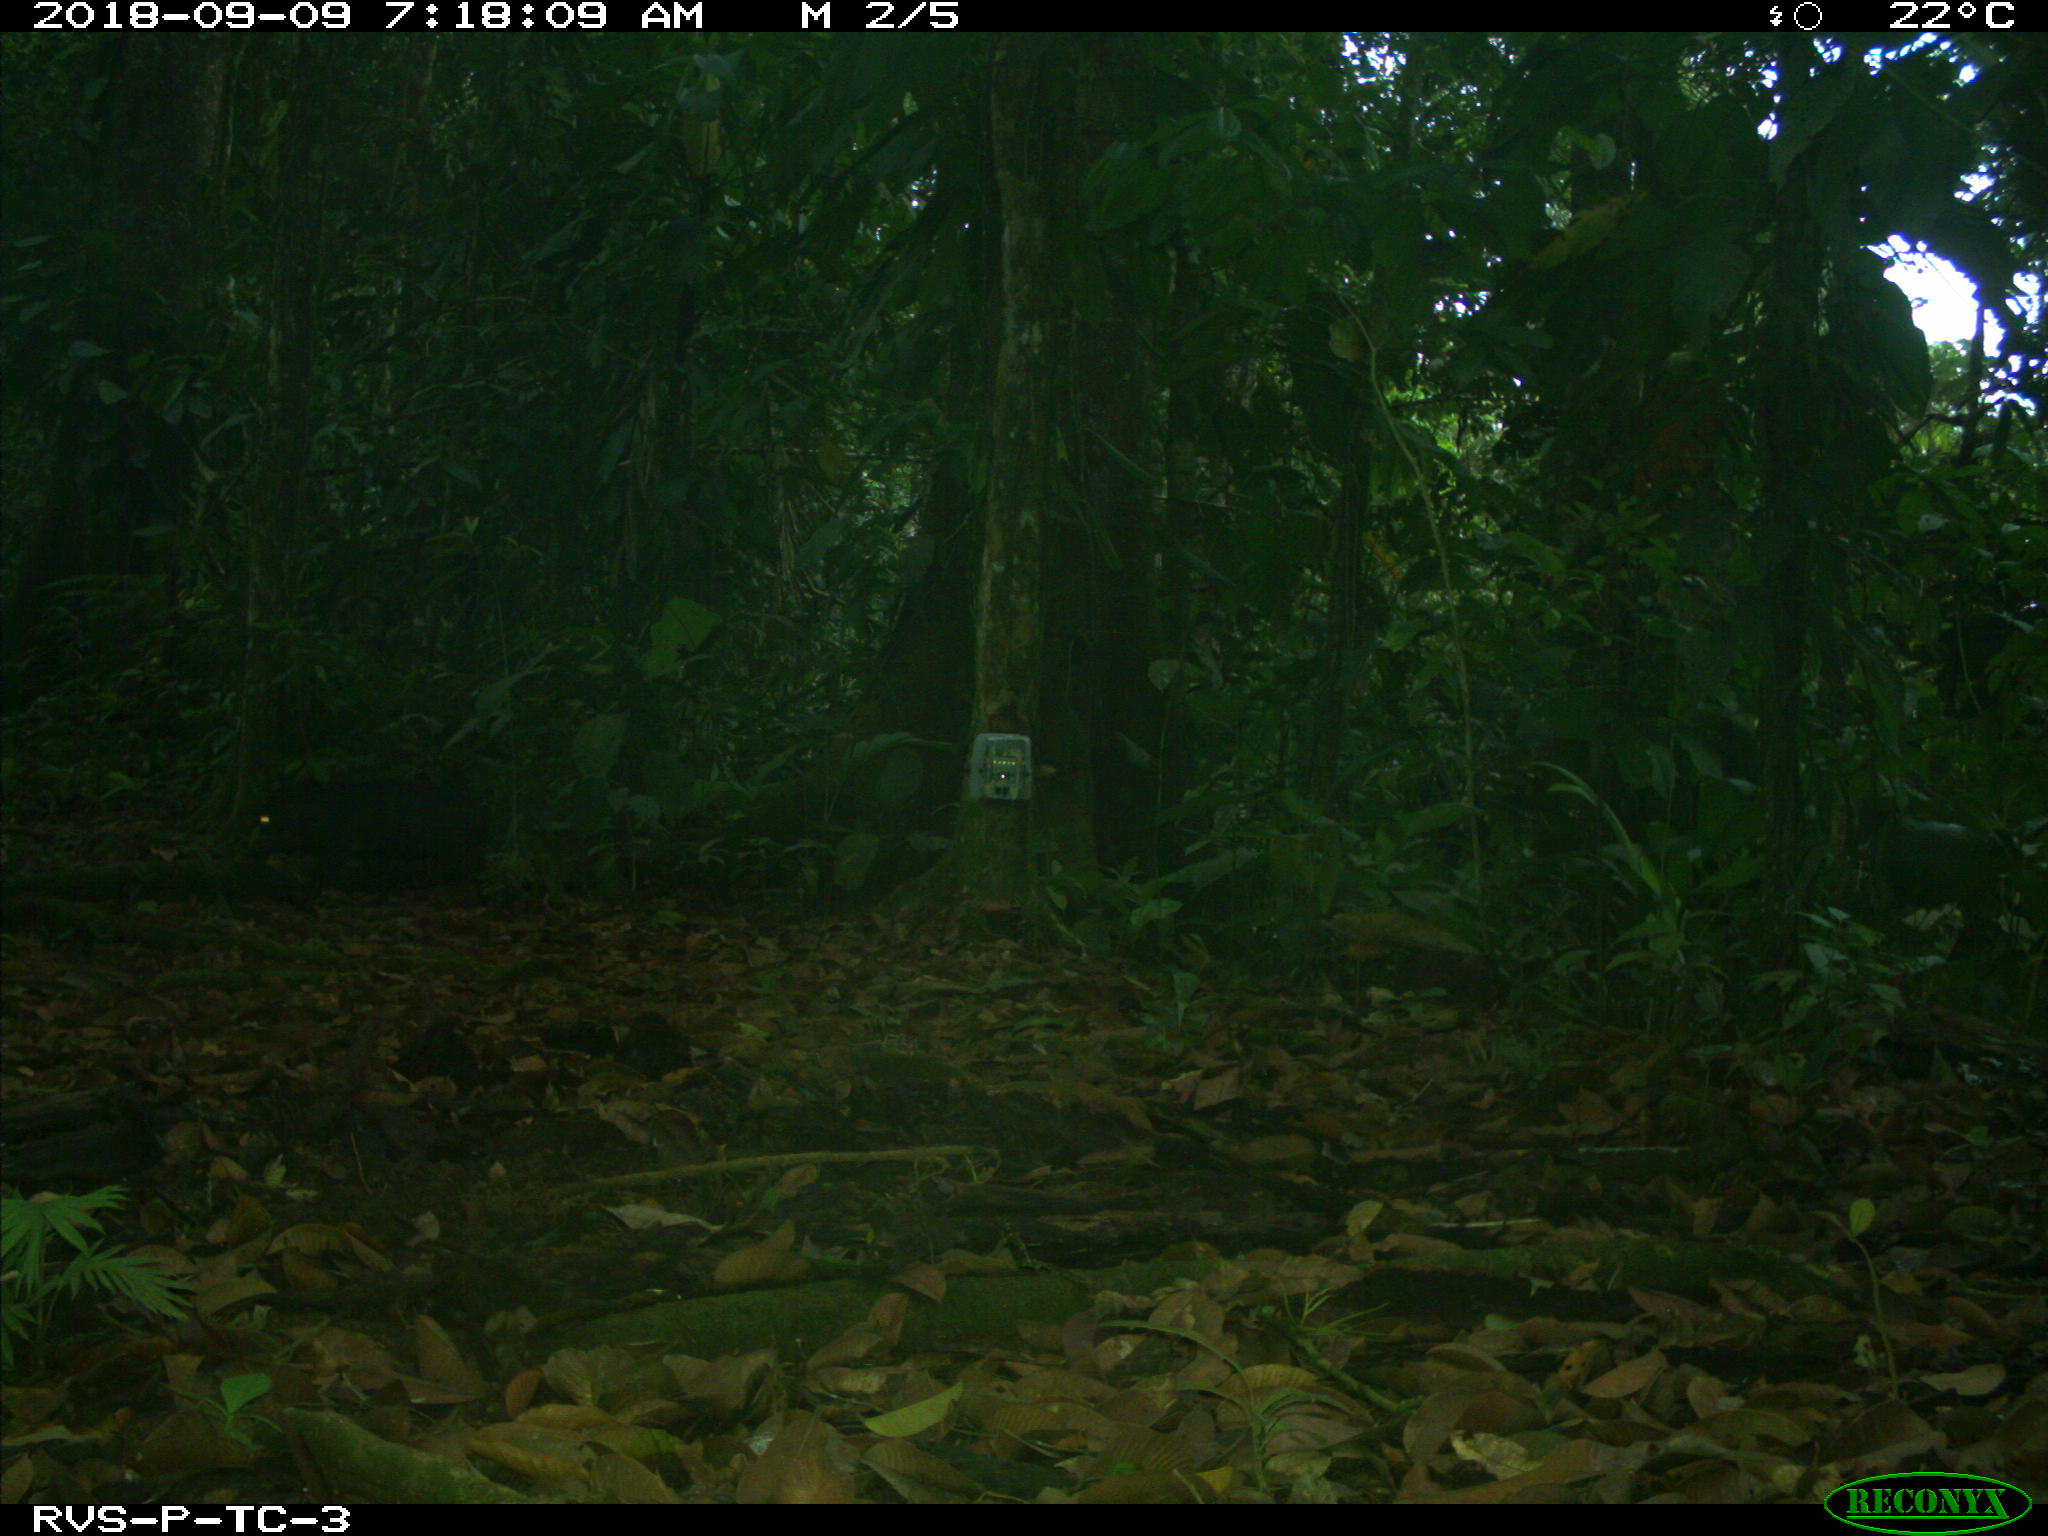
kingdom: Animalia
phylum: Chordata
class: Mammalia
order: Artiodactyla
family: Tayassuidae
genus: Tayassu
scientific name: Tayassu pecari
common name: White-lipped peccary
